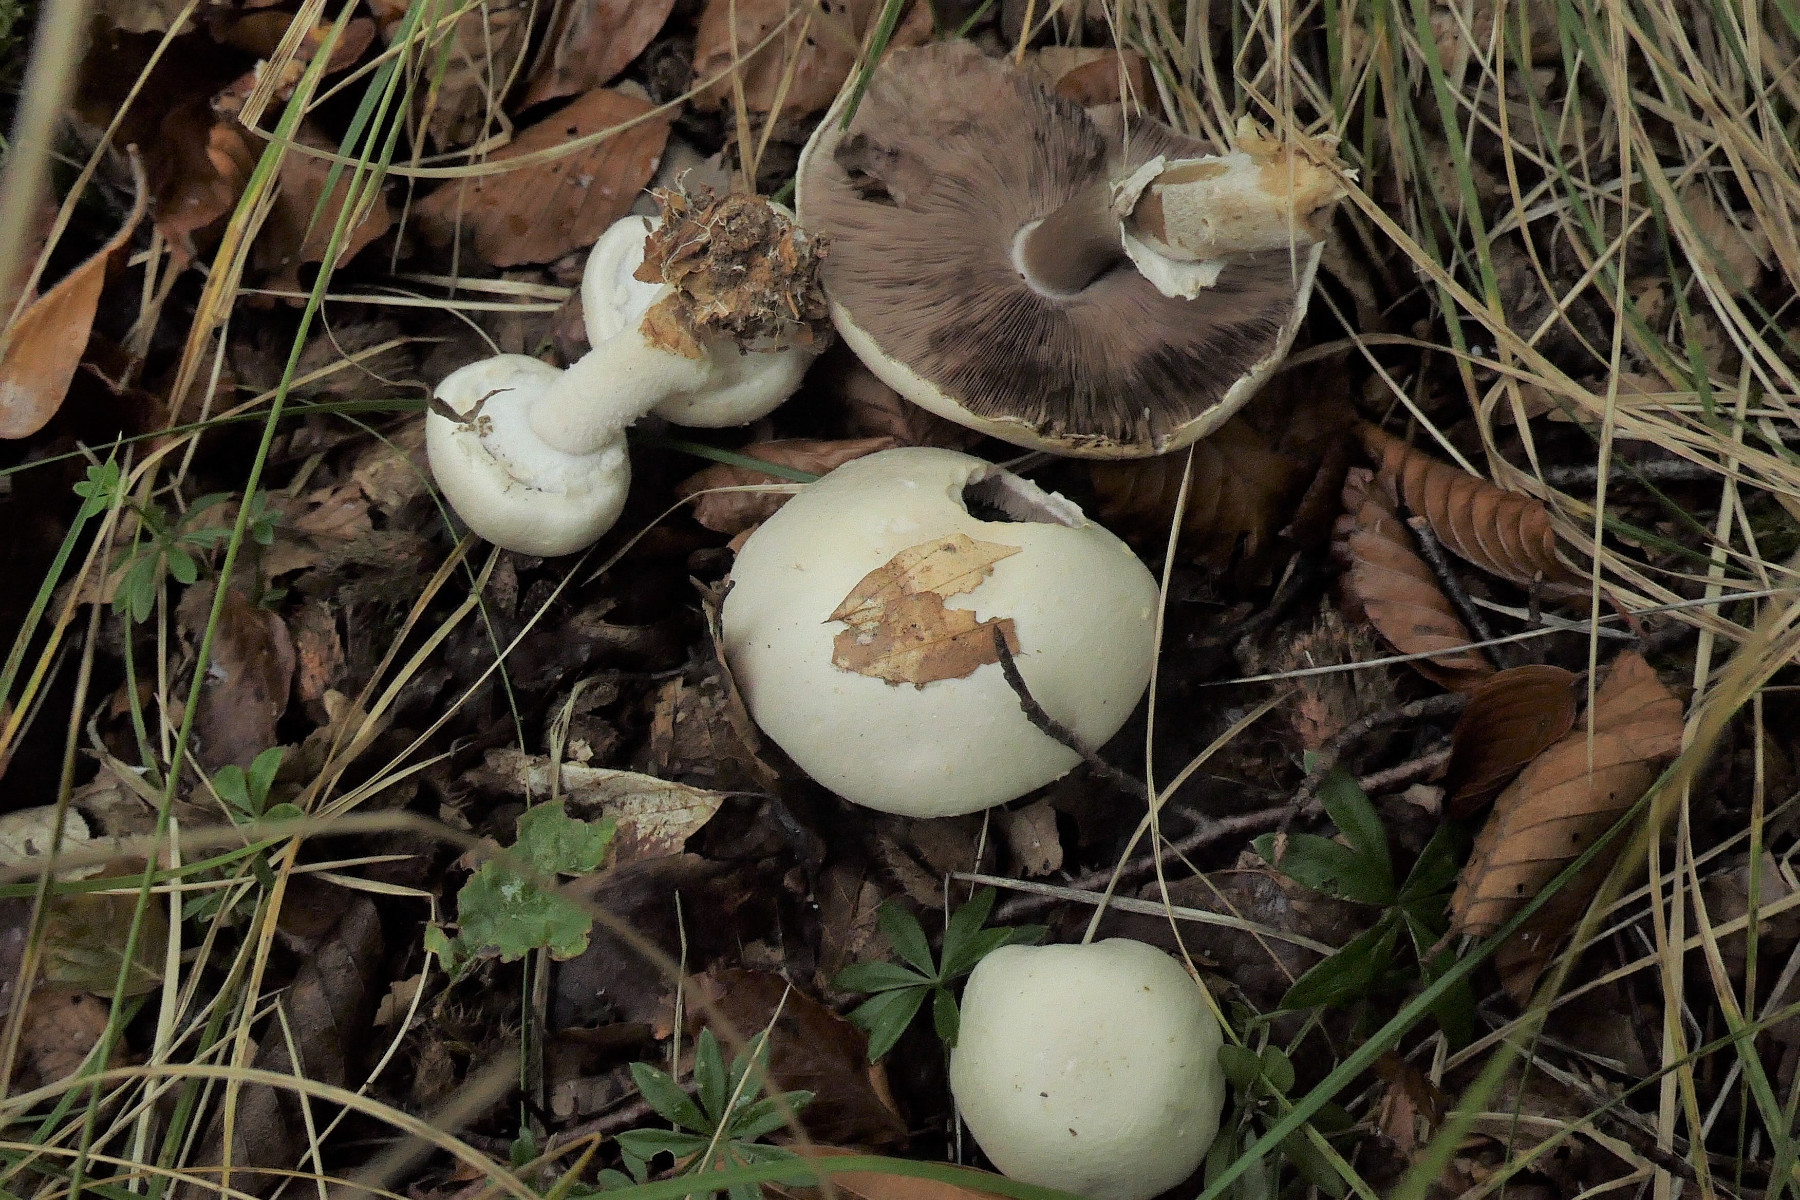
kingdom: Fungi
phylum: Basidiomycota
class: Agaricomycetes
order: Agaricales
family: Agaricaceae
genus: Agaricus
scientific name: Agaricus sylvicola
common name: gulhvid champignon
